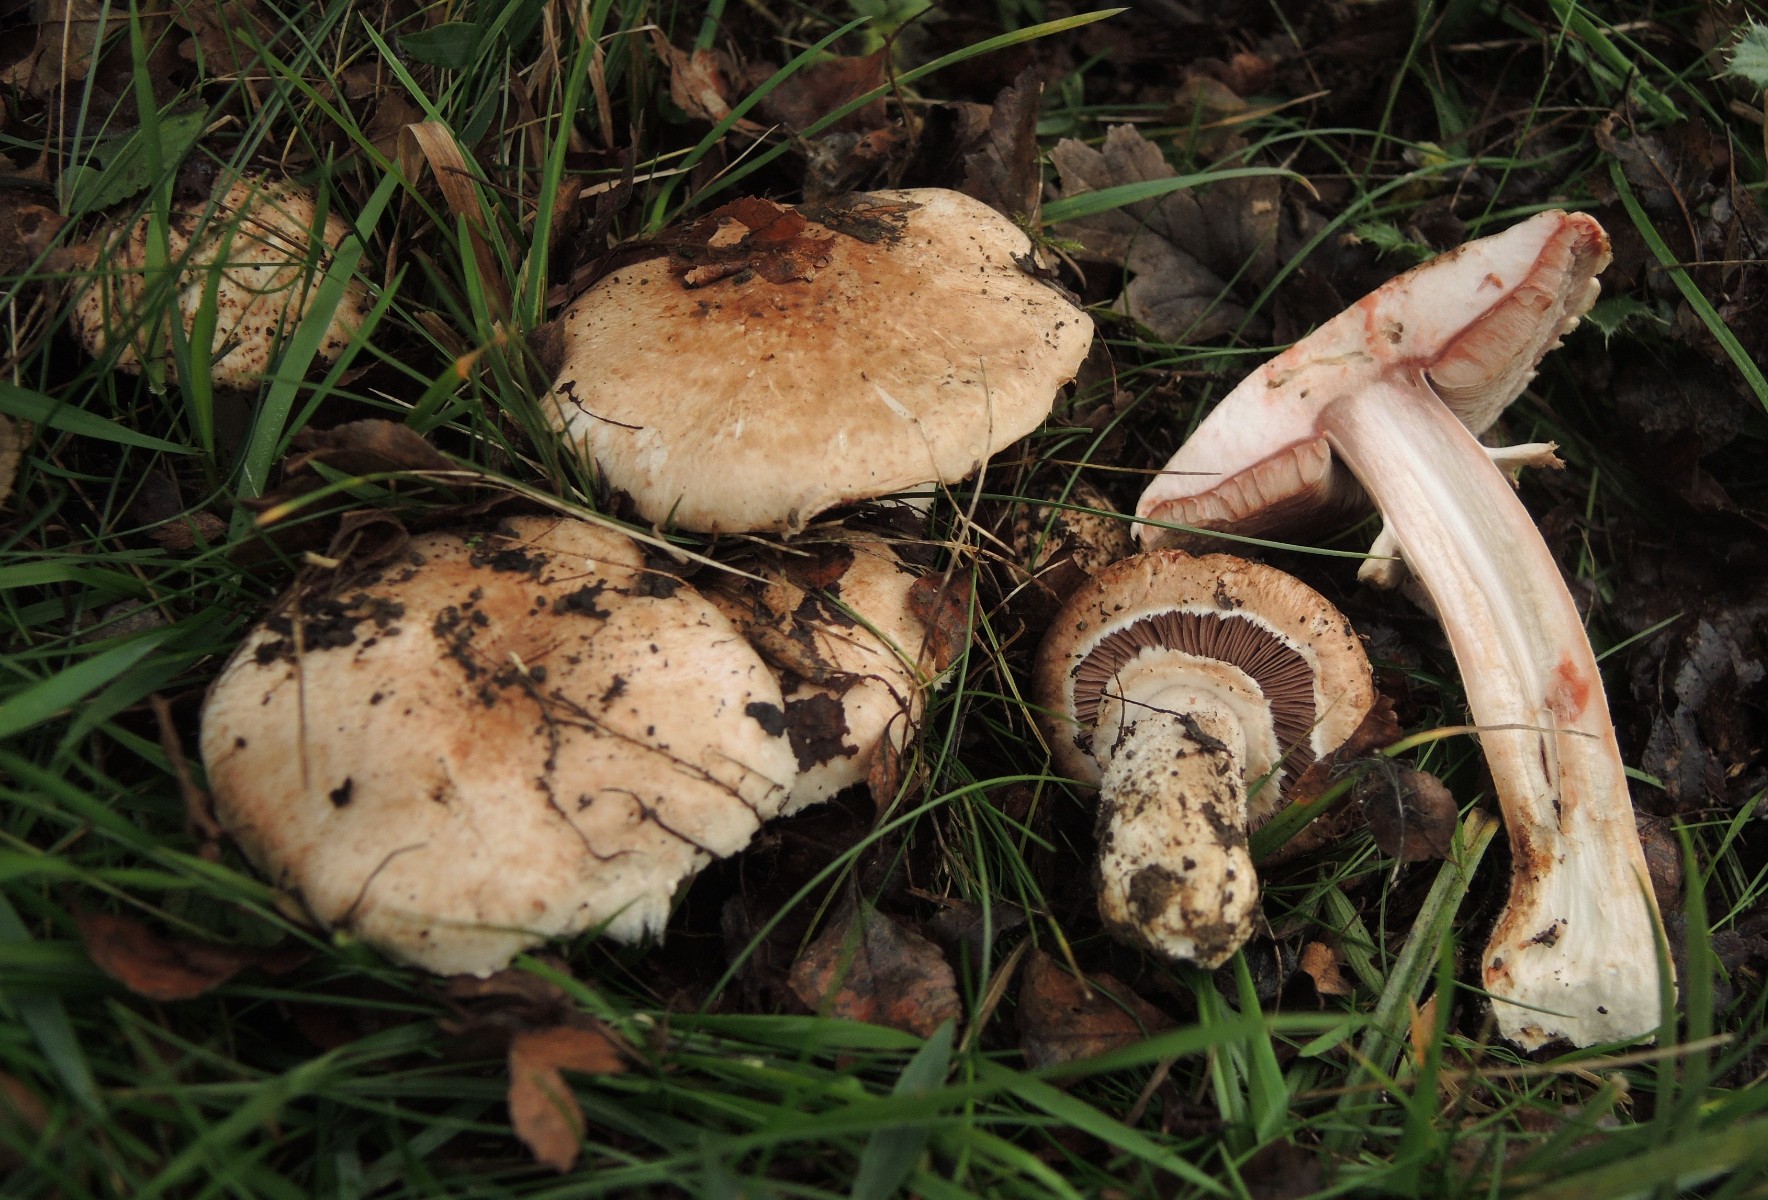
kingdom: Fungi
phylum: Basidiomycota
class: Agaricomycetes
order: Agaricales
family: Agaricaceae
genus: Agaricus
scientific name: Agaricus langei
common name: stor blod-champignon
